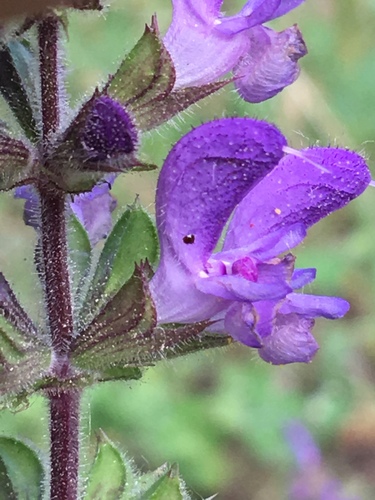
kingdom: Plantae
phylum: Tracheophyta
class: Magnoliopsida
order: Lamiales
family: Lamiaceae
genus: Salvia
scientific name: Salvia sclareoides
